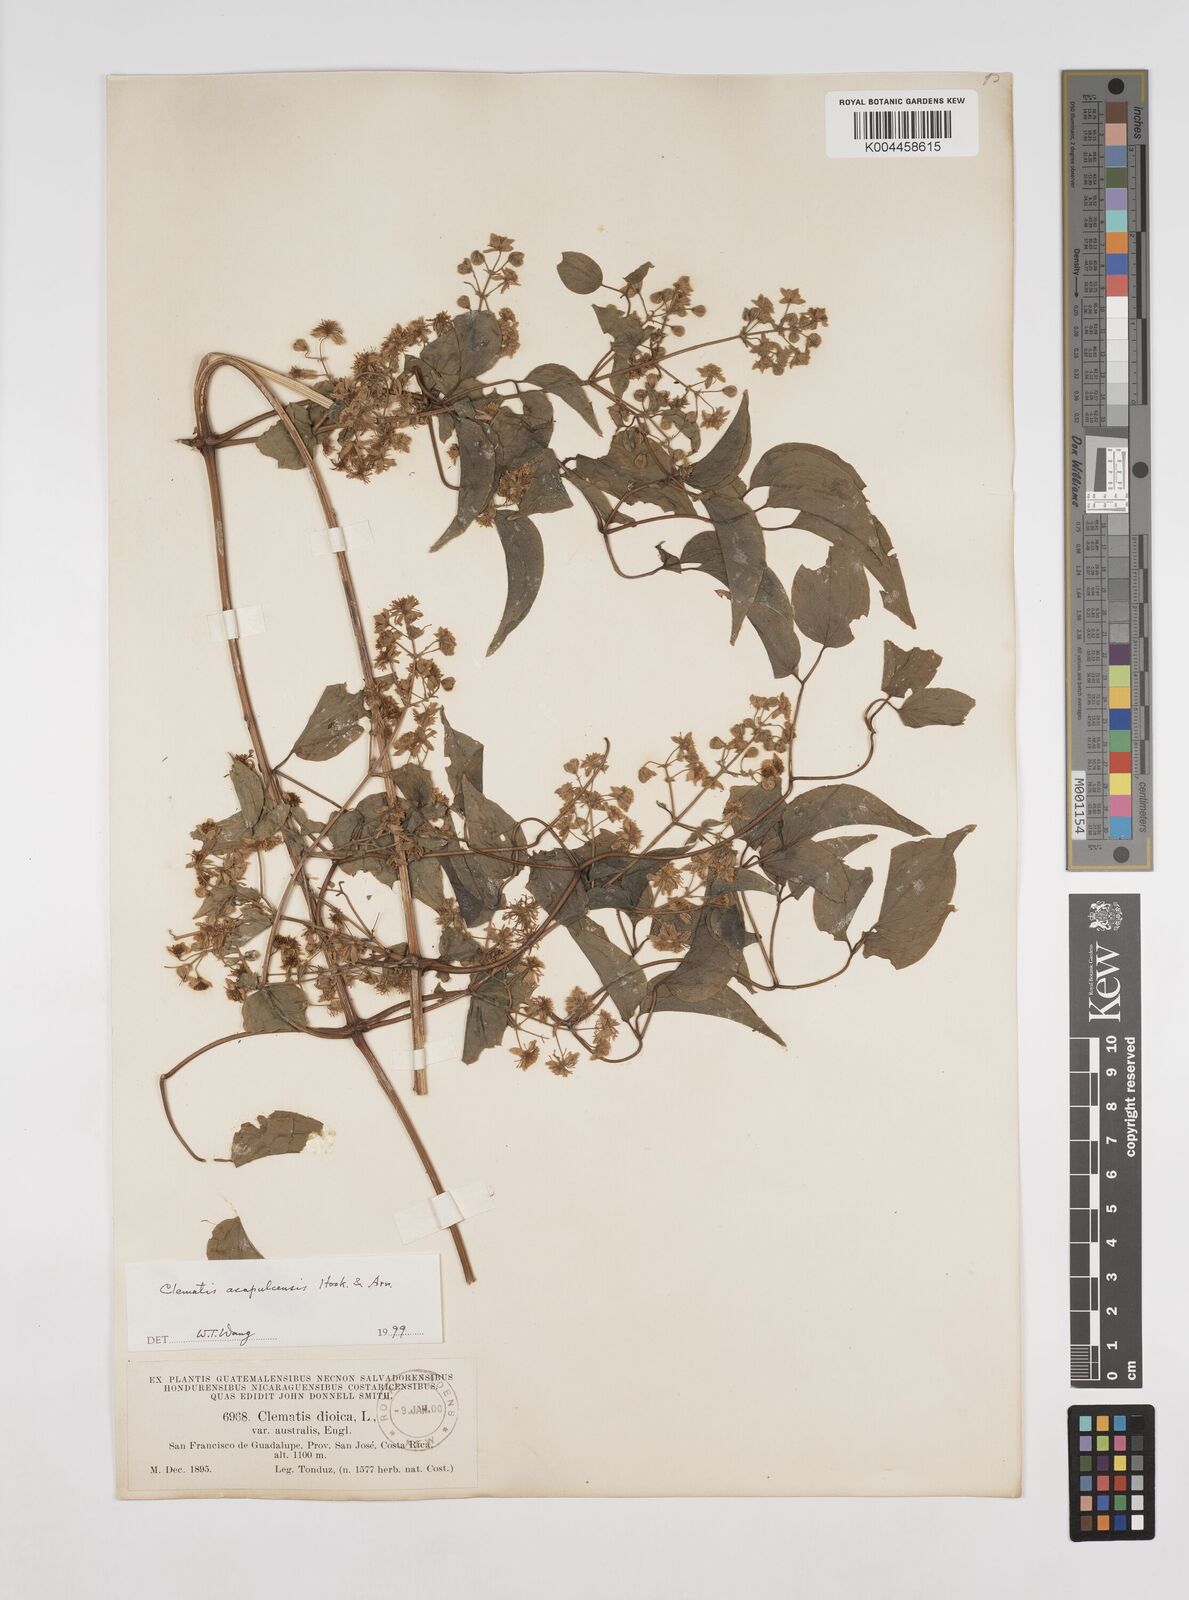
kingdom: Plantae
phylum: Tracheophyta
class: Magnoliopsida
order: Ranunculales
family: Ranunculaceae
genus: Clematis
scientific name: Clematis acapulcensis
